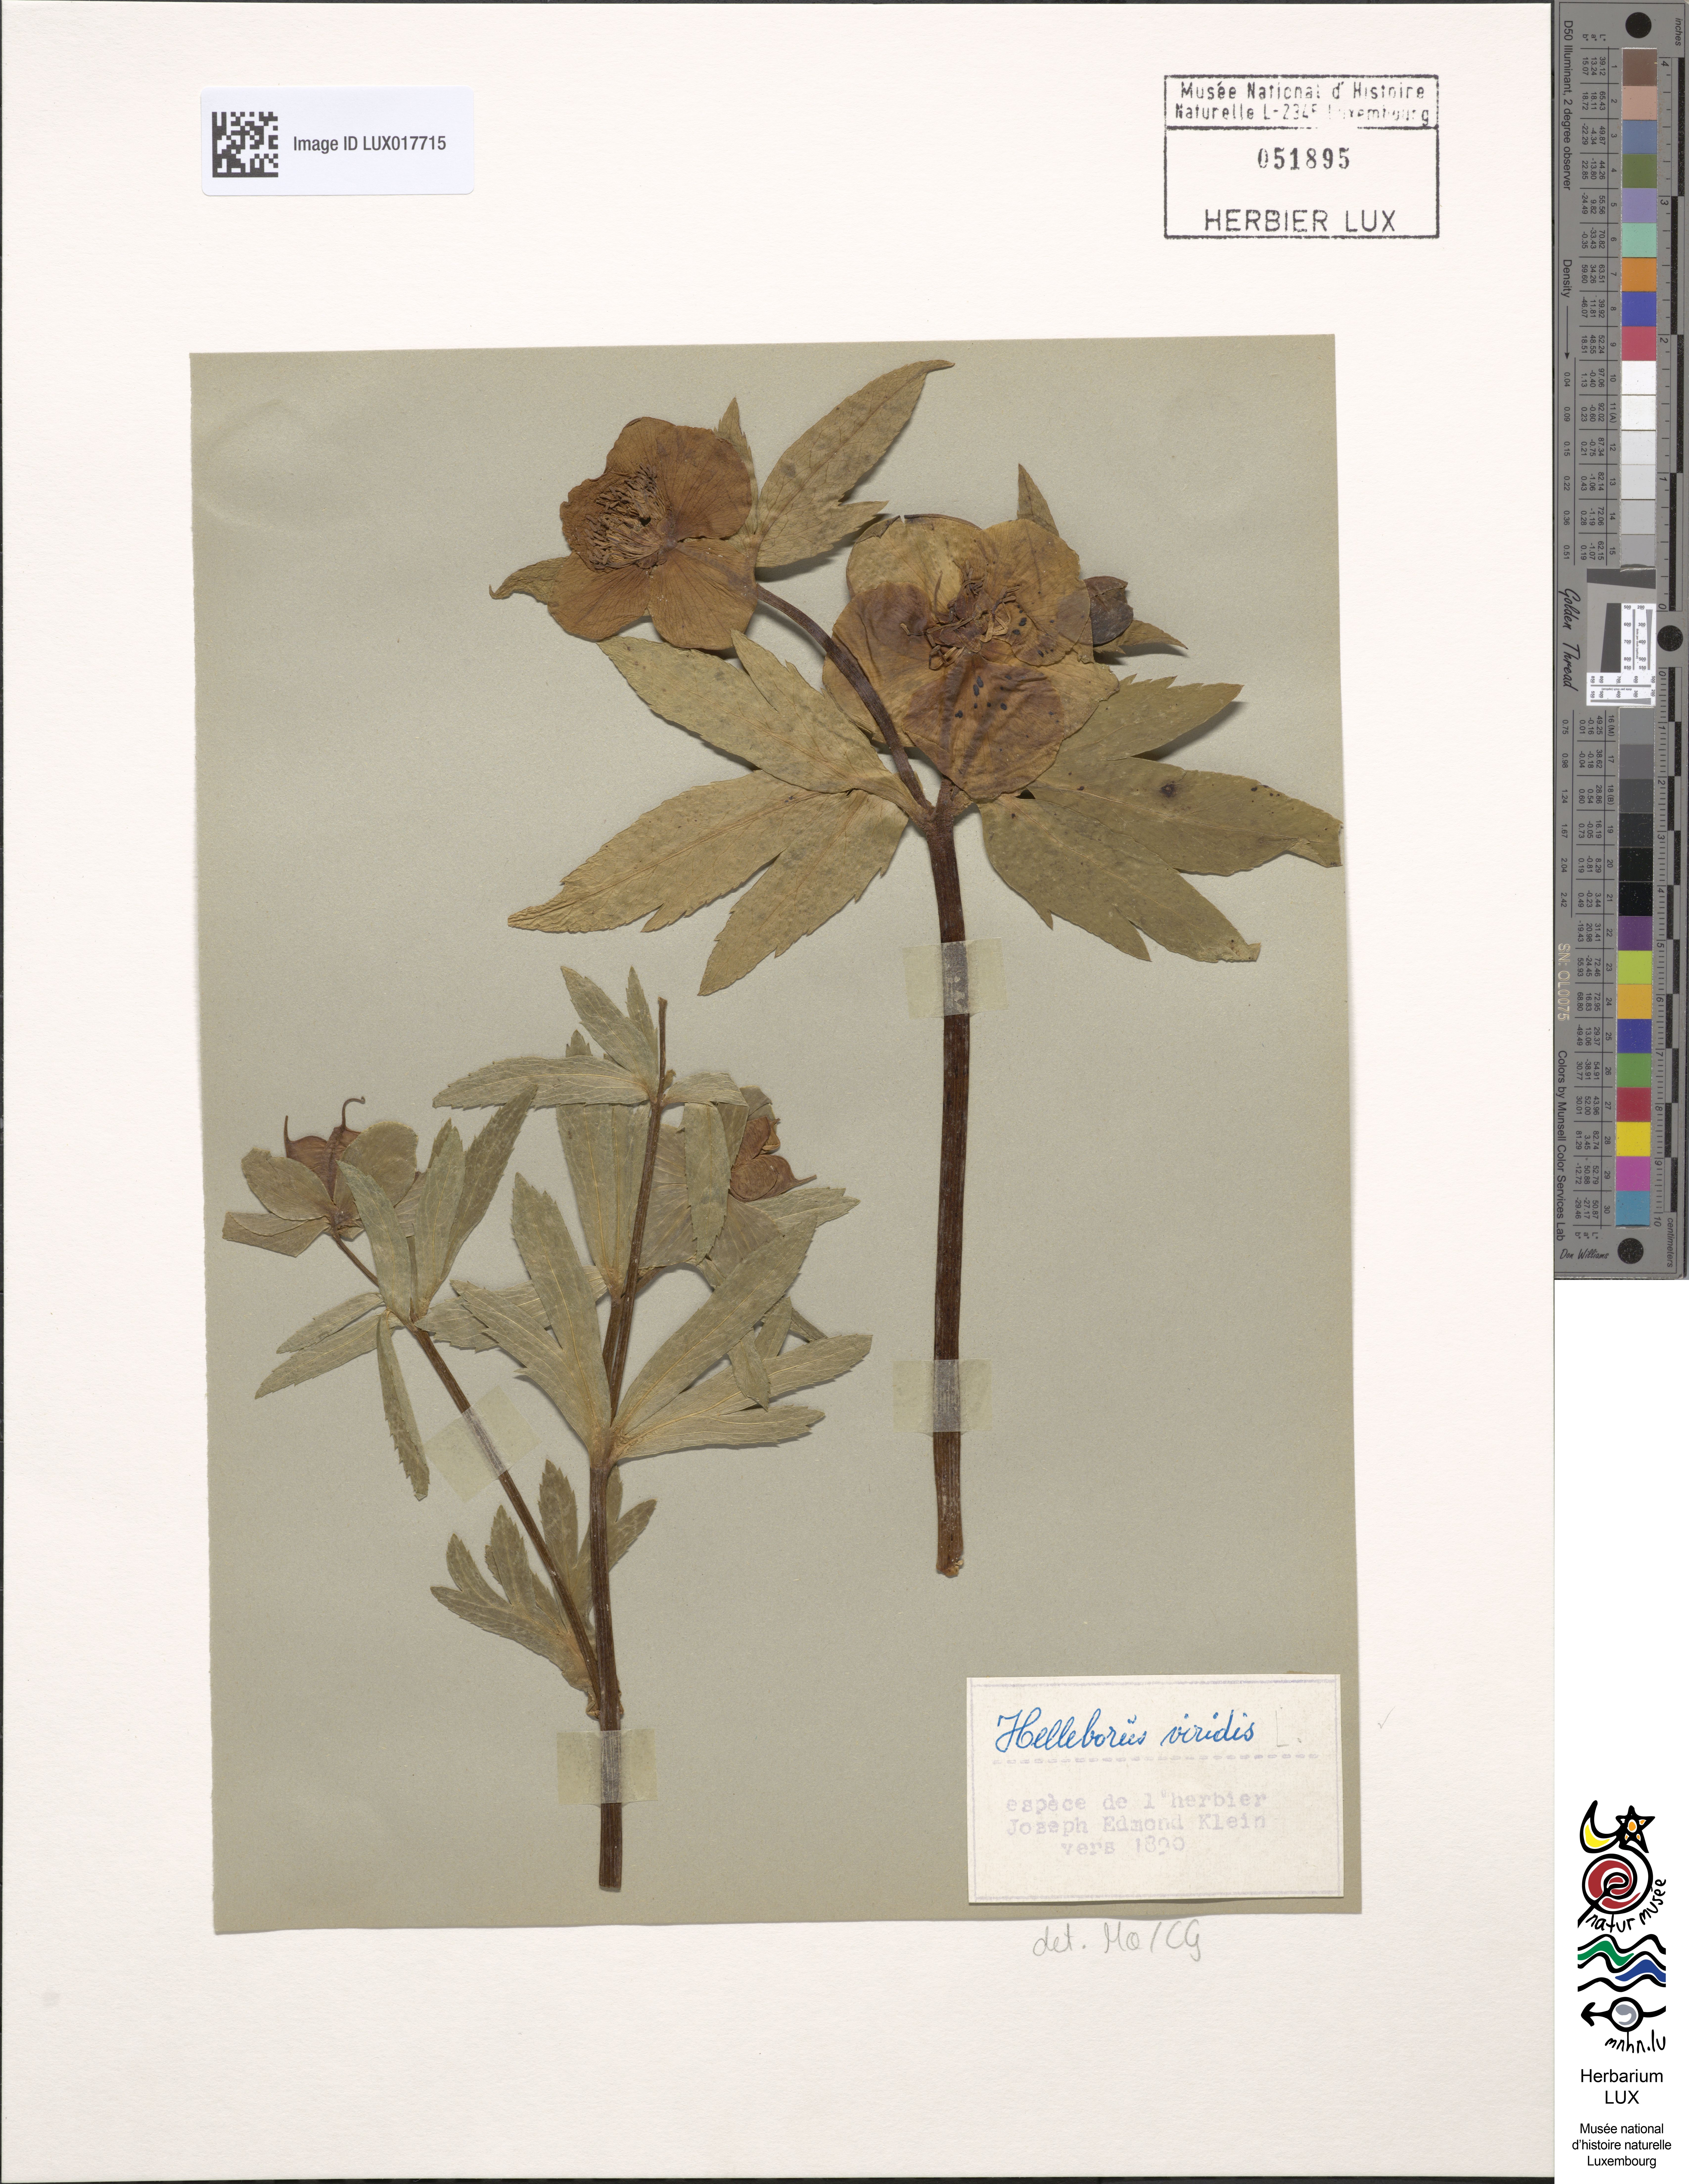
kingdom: Plantae
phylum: Tracheophyta
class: Magnoliopsida
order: Ranunculales
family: Ranunculaceae
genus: Helleborus
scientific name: Helleborus viridis
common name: Green hellebore
